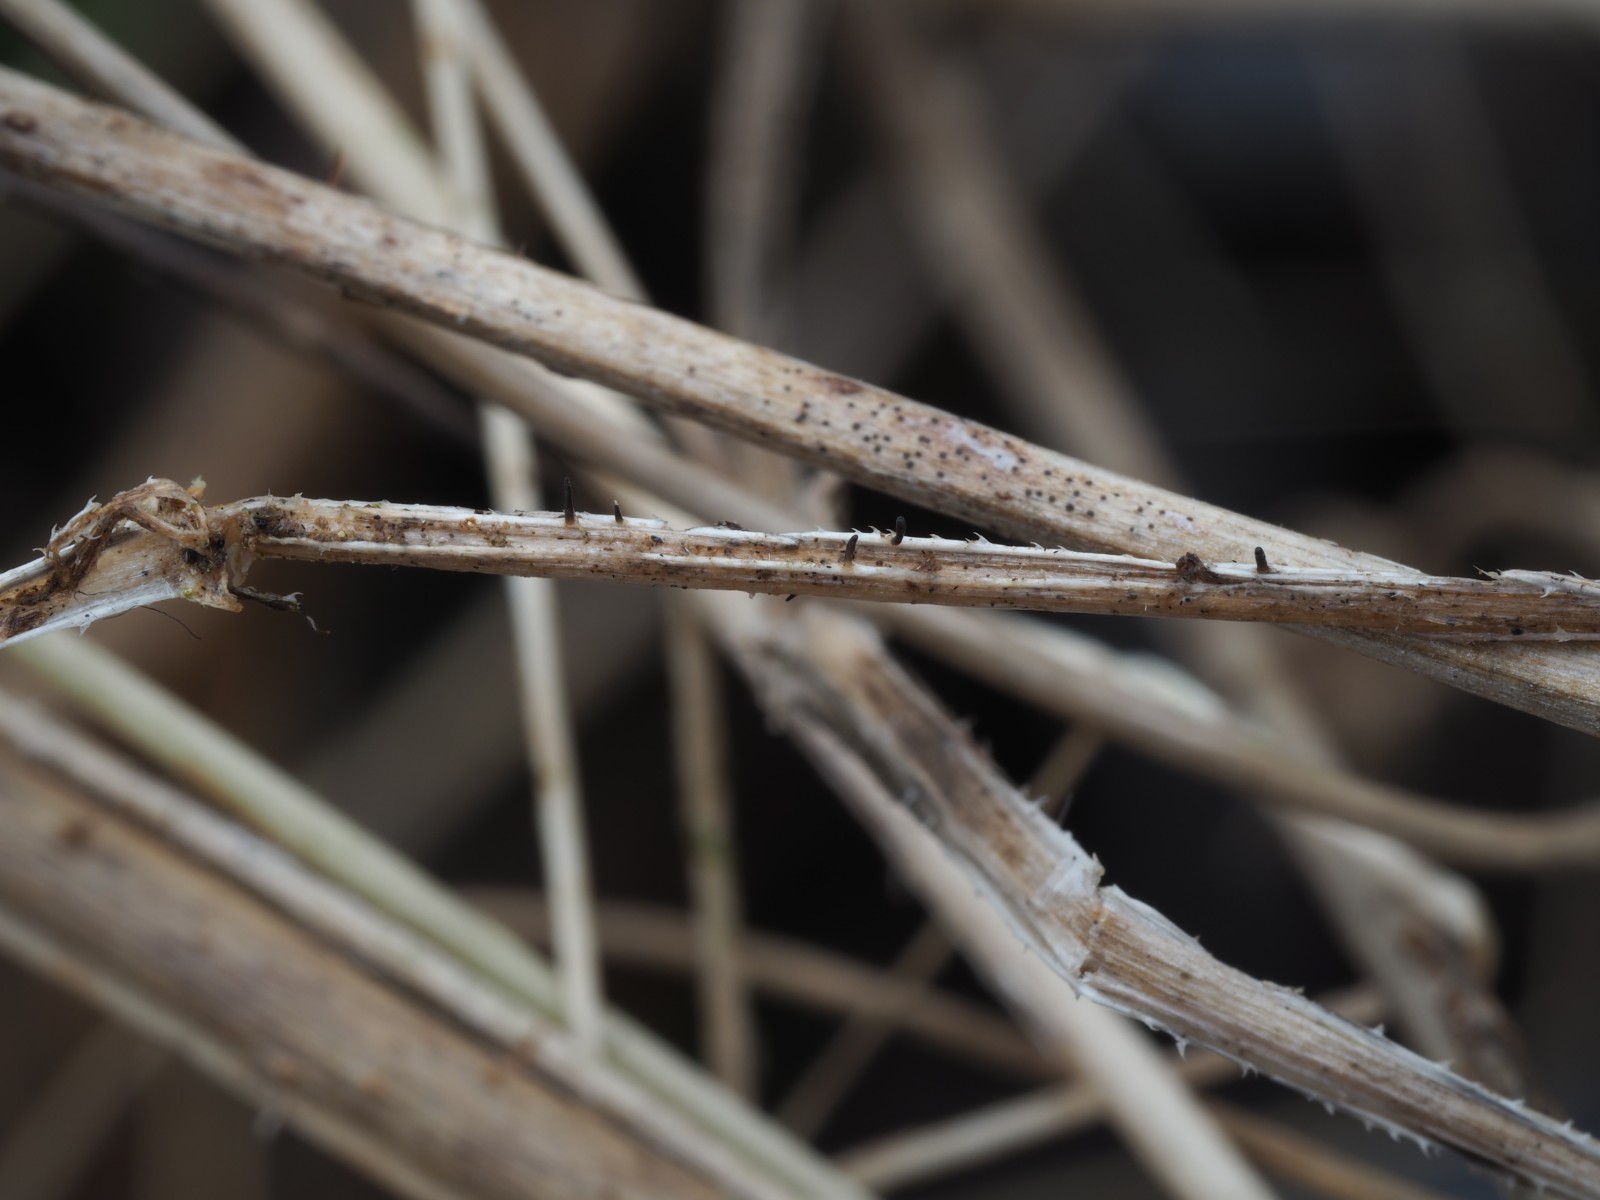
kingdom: Fungi
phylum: Ascomycota
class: Dothideomycetes
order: Acrospermales
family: Acrospermaceae
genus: Acrospermum
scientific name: Acrospermum pallidulum
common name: snerre-stængeltunge
